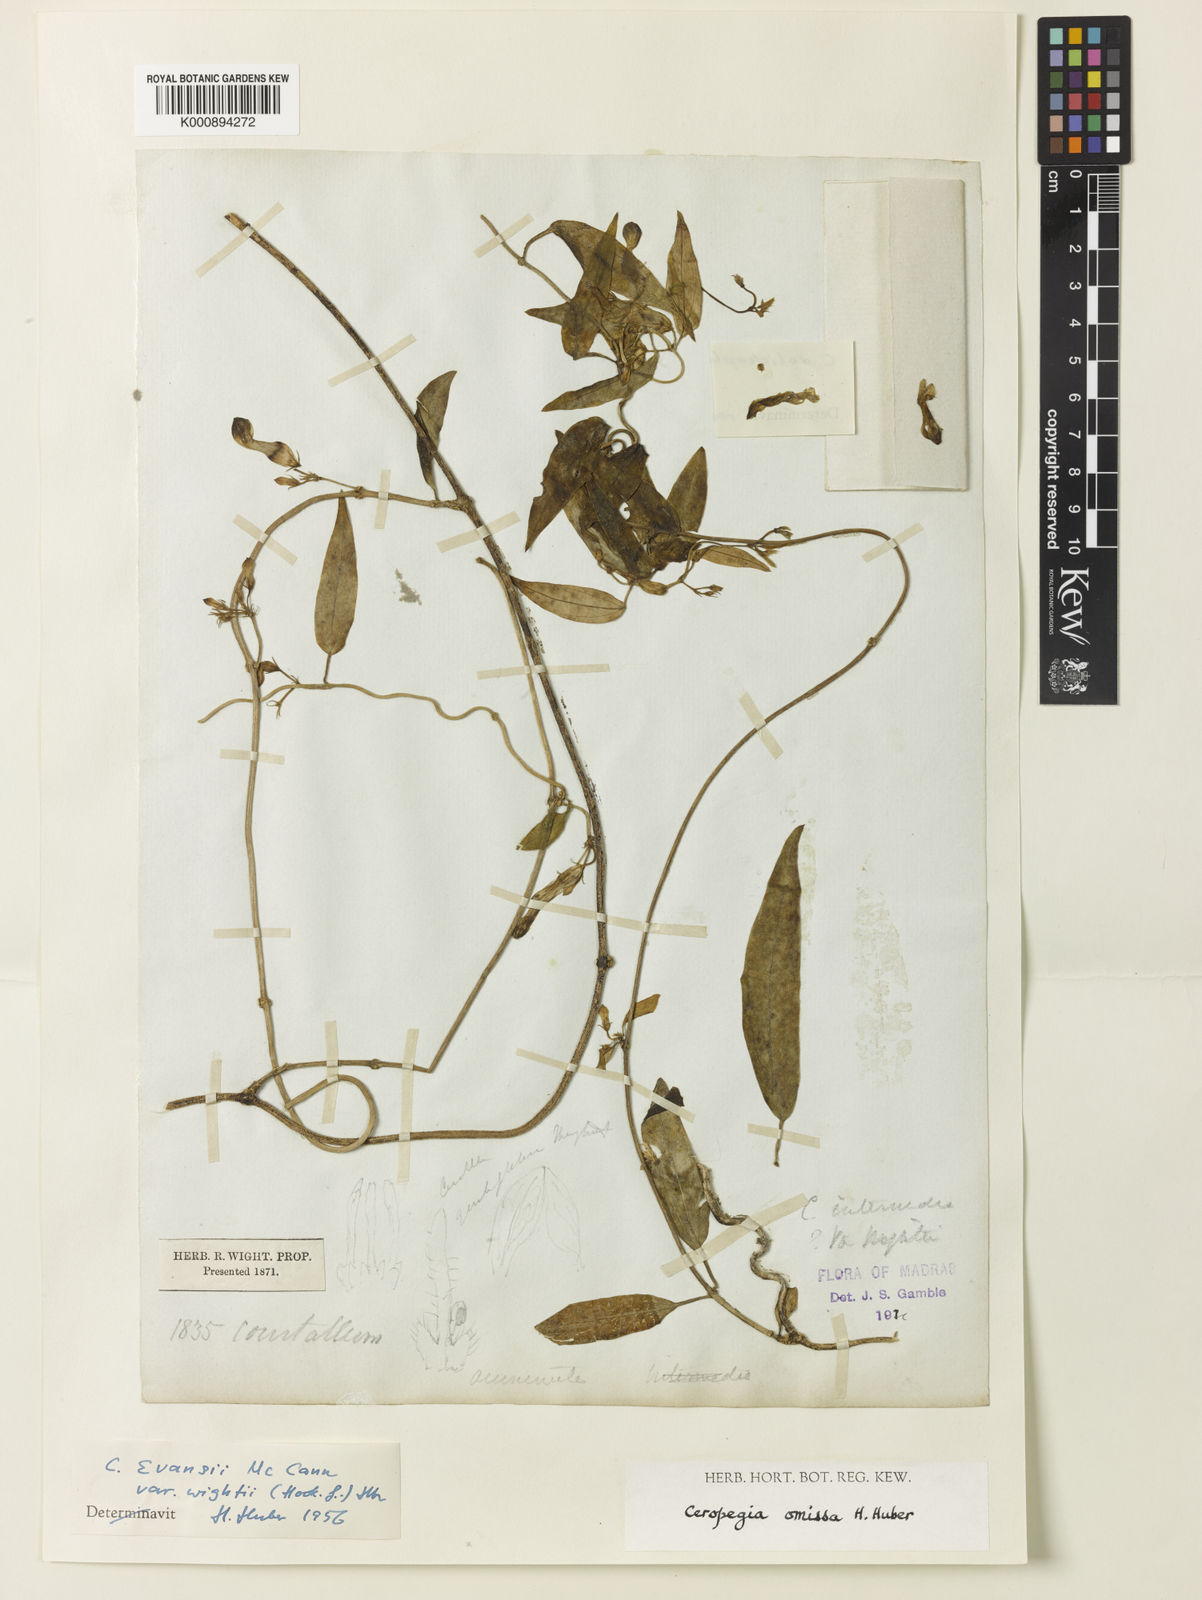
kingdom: Plantae
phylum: Tracheophyta
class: Magnoliopsida
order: Gentianales
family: Apocynaceae
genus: Ceropegia
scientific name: Ceropegia omissa
